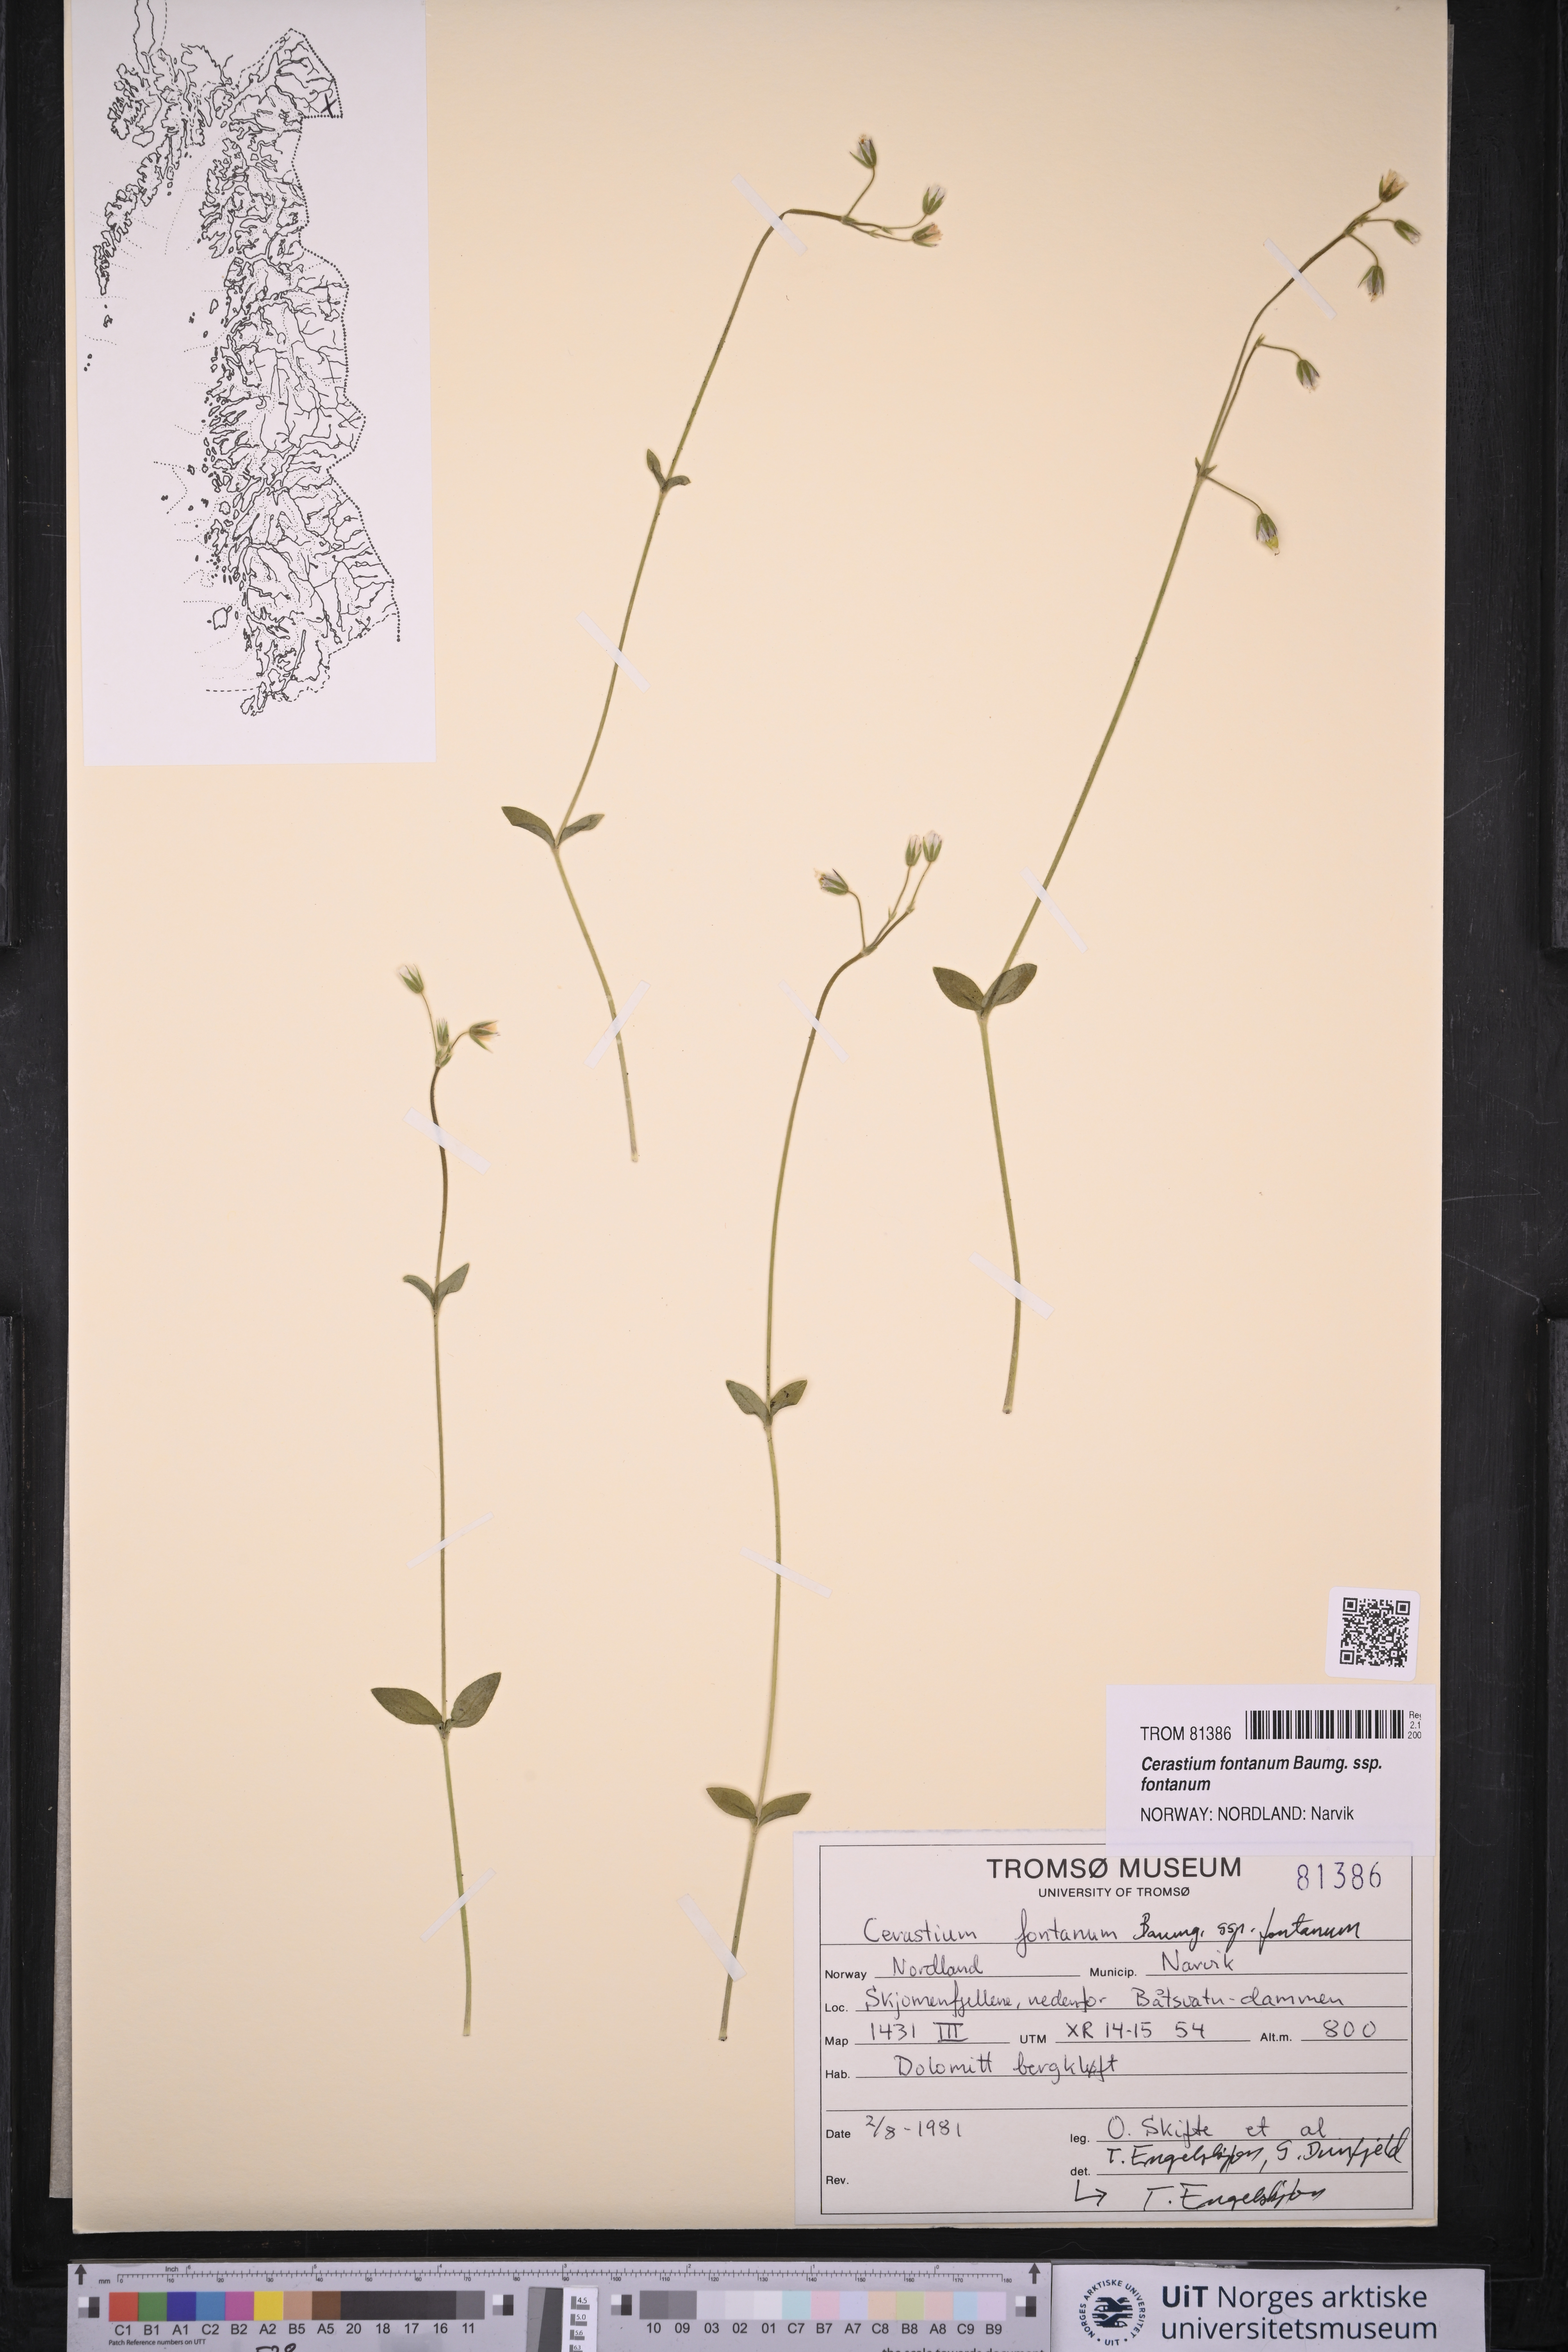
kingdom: Plantae
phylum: Tracheophyta
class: Magnoliopsida
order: Caryophyllales
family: Caryophyllaceae
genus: Cerastium
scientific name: Cerastium fontanum
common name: Common mouse-ear
